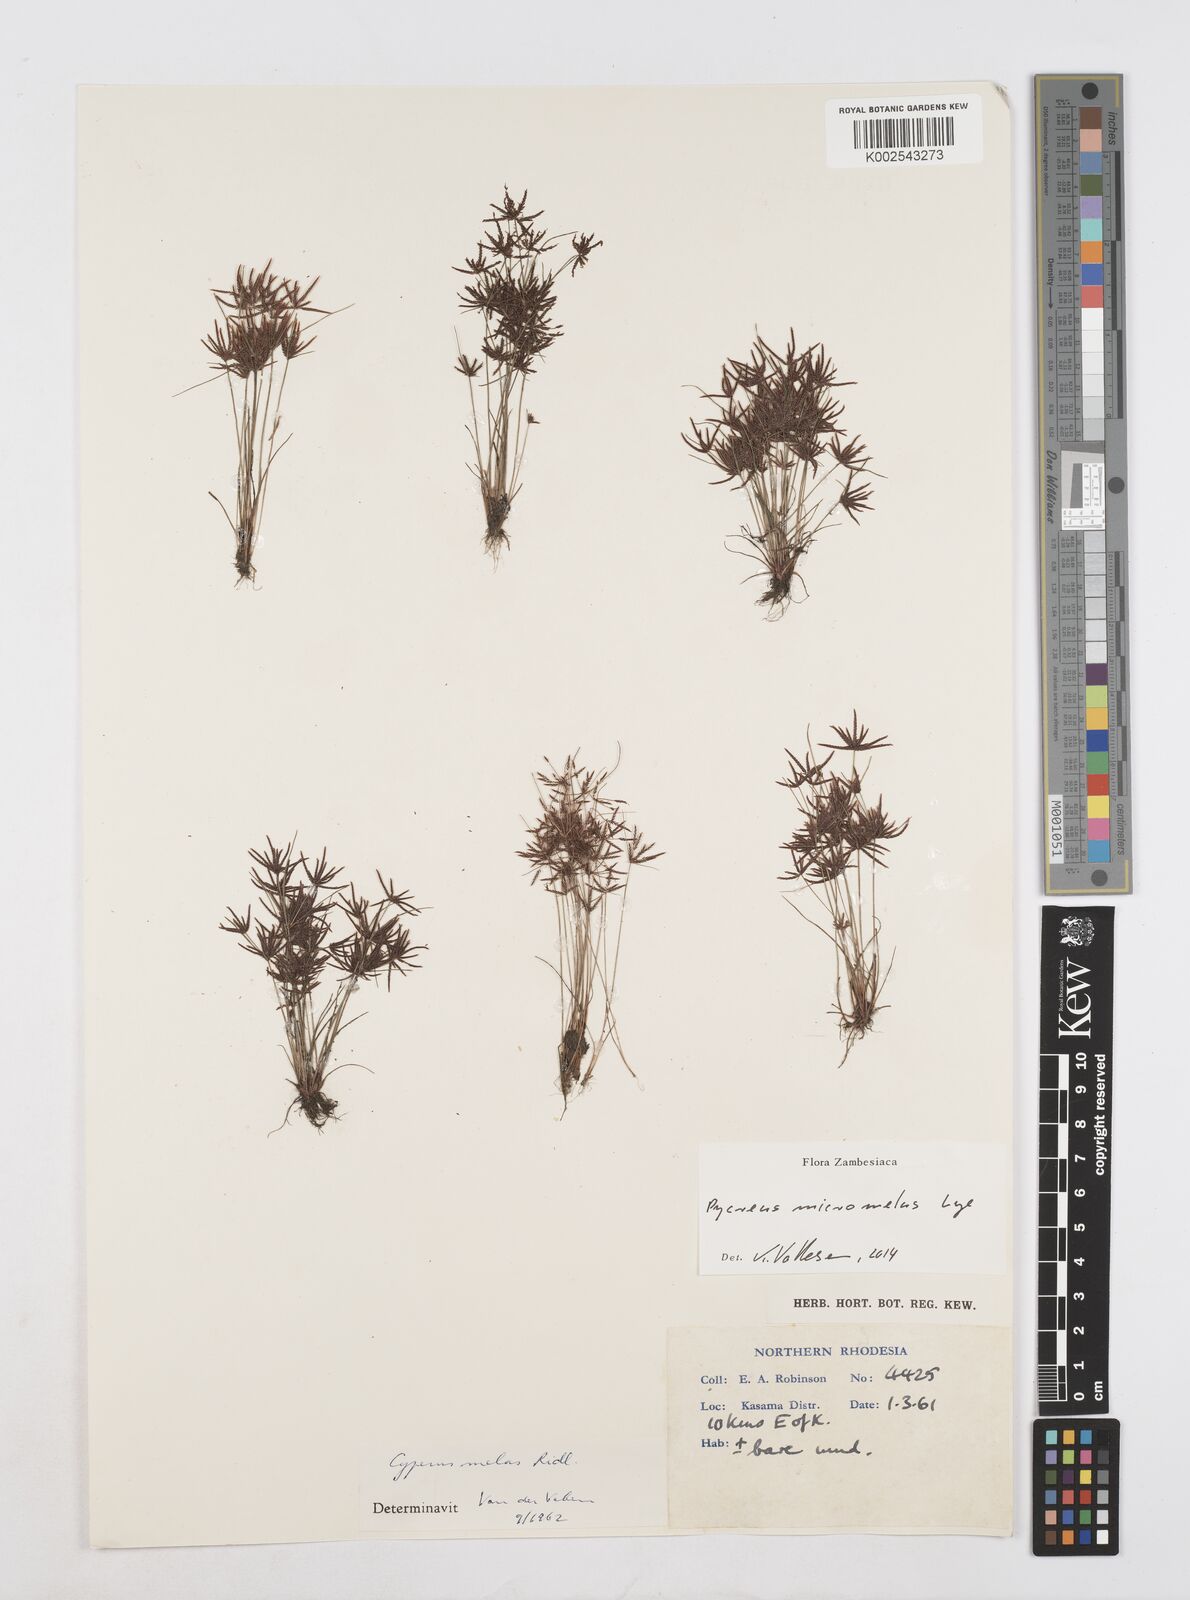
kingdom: Plantae
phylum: Tracheophyta
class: Liliopsida
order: Poales
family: Cyperaceae
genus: Cyperus
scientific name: Cyperus micromelas
